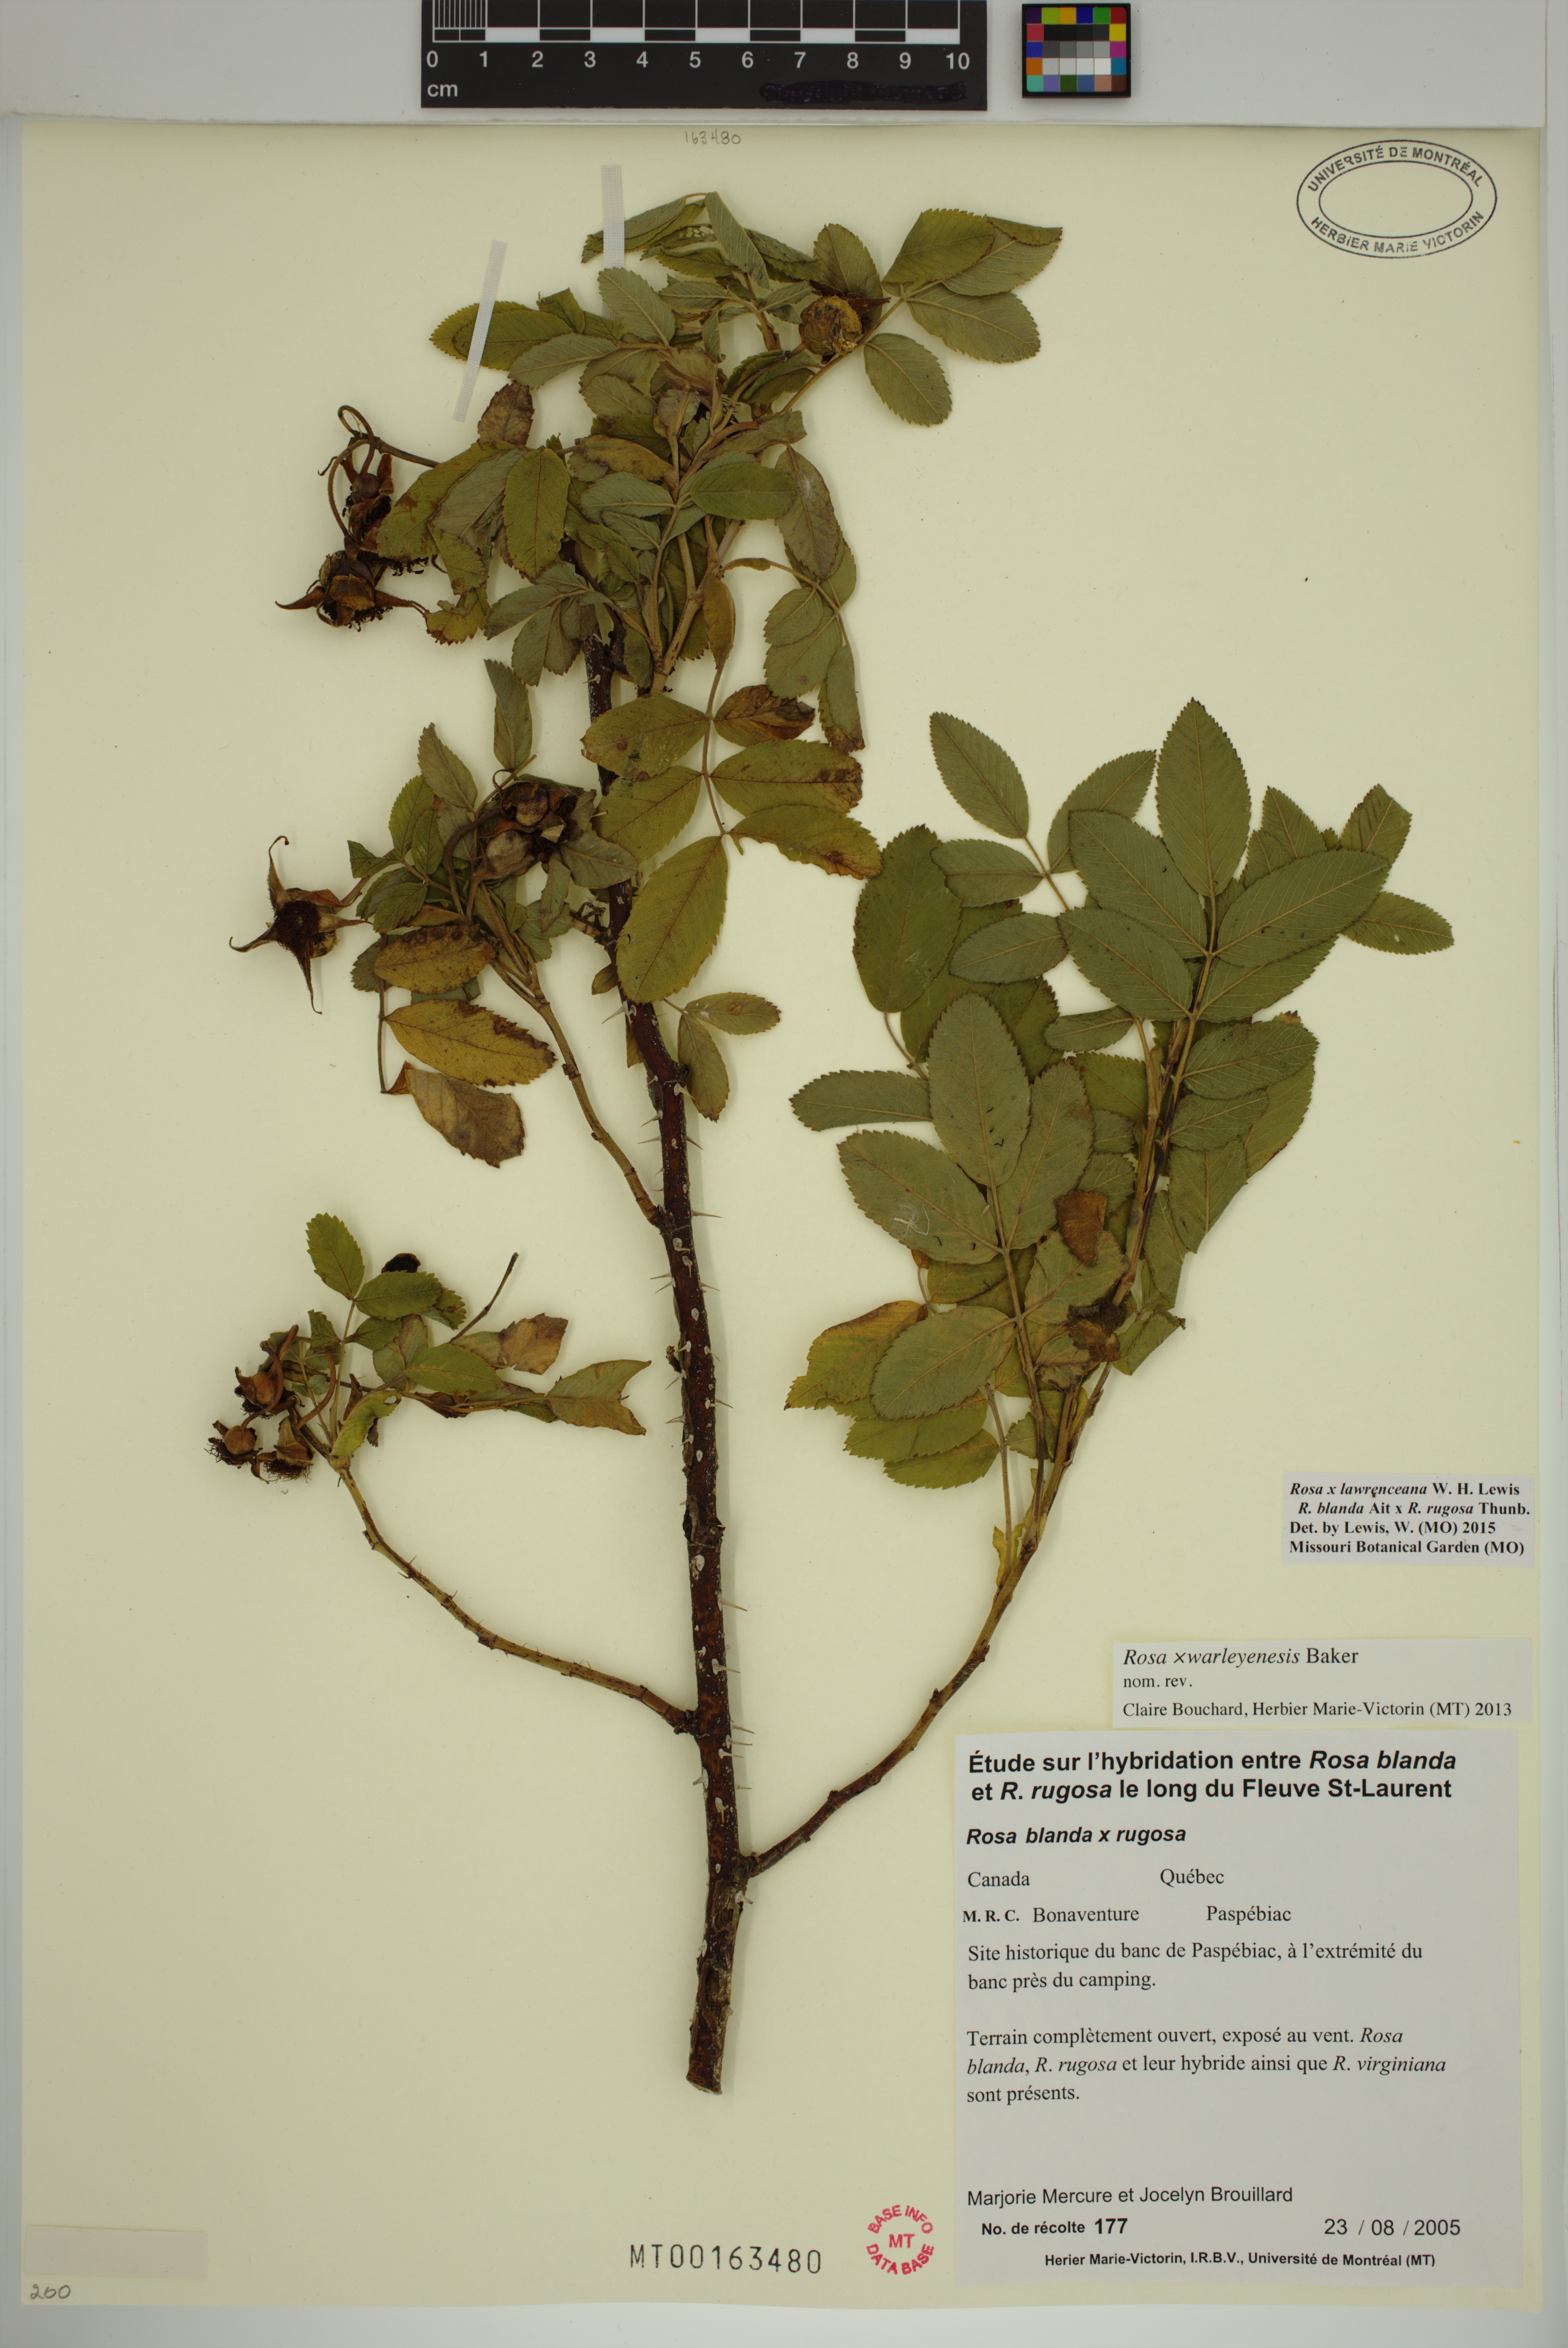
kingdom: Plantae
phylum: Tracheophyta
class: Magnoliopsida
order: Rosales
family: Rosaceae
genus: Rosa
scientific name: Rosa chinensis
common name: China rose
